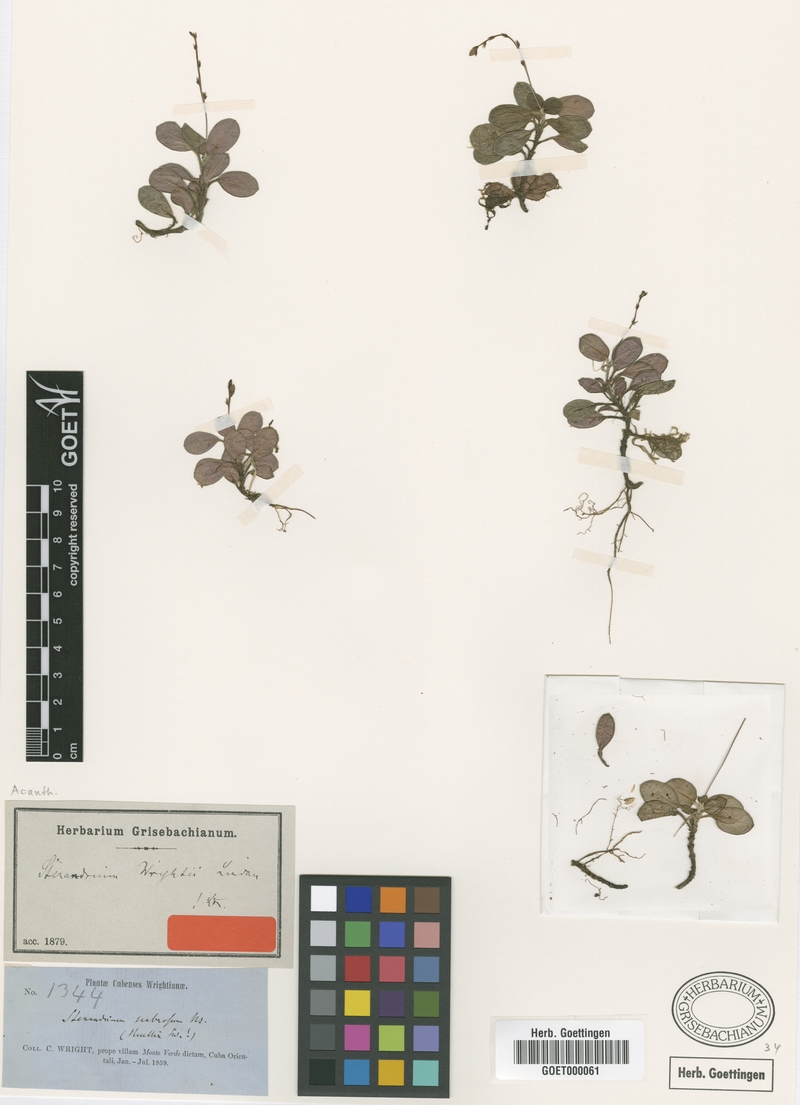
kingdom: Plantae
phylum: Tracheophyta
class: Magnoliopsida
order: Lamiales
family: Acanthaceae
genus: Stenandrium
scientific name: Stenandrium wrightii
